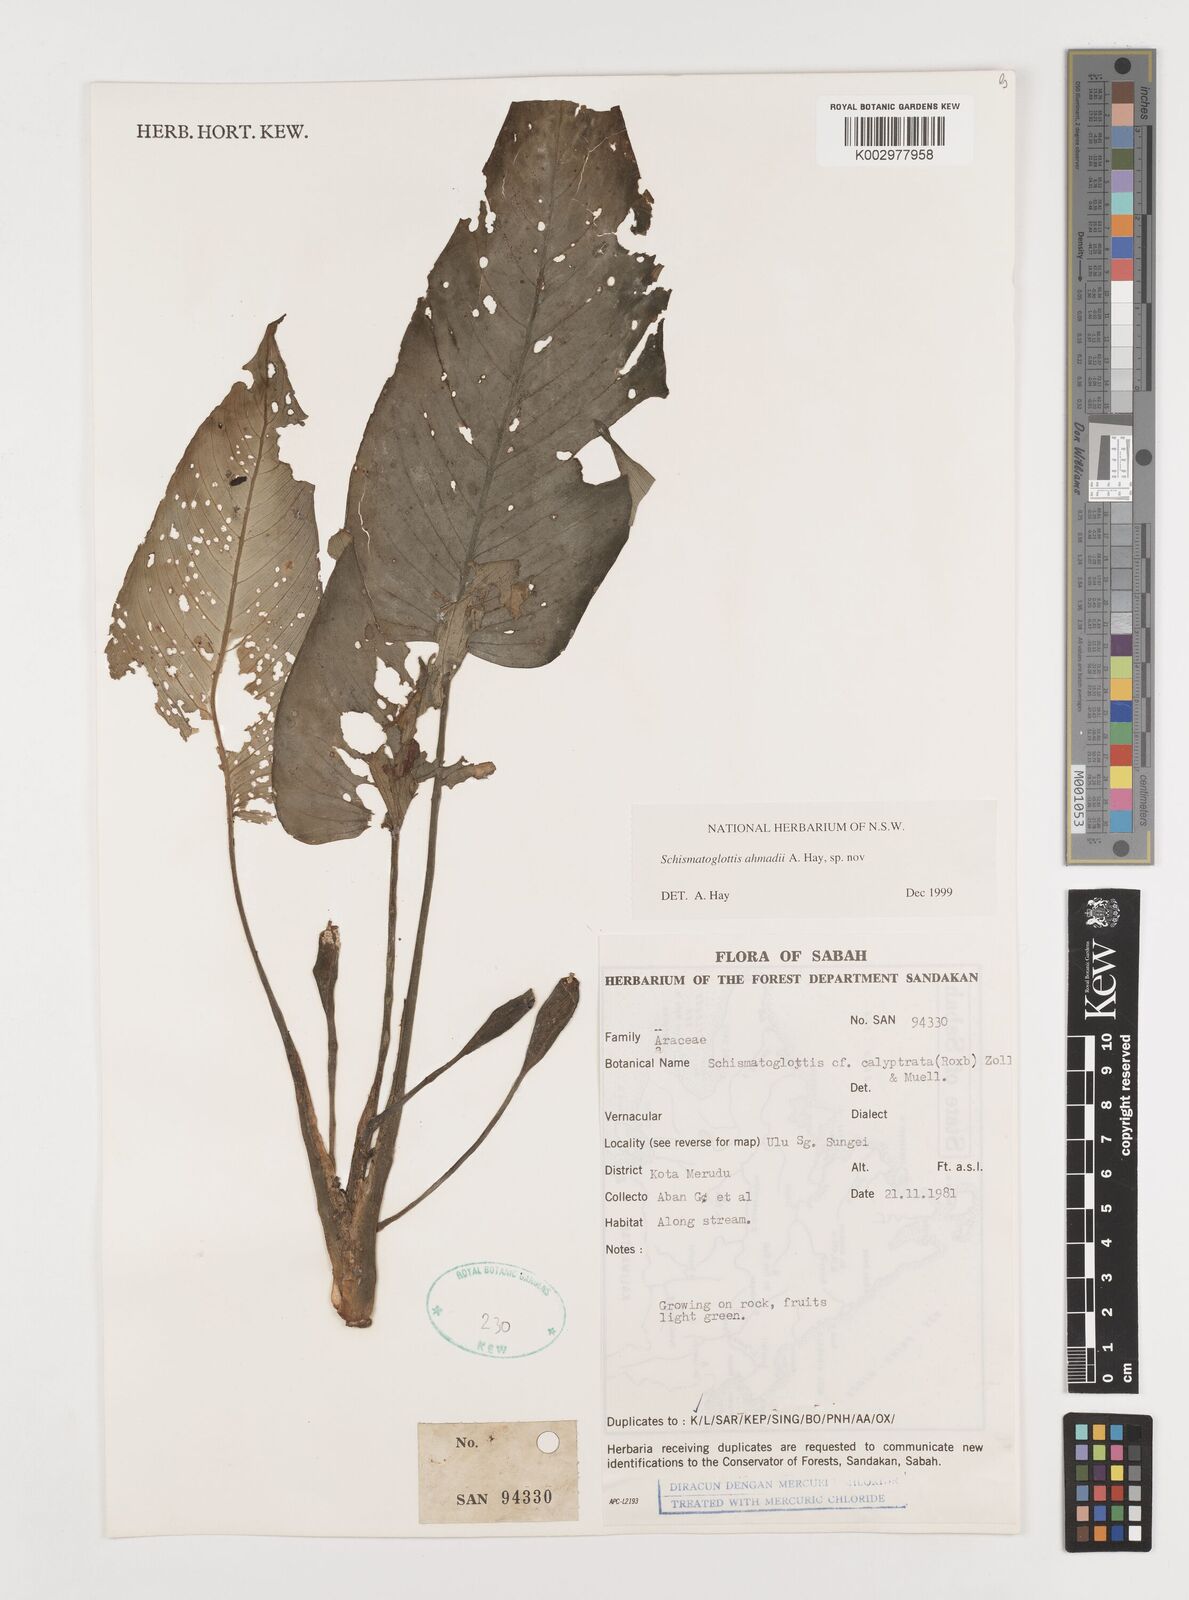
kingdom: Plantae
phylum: Tracheophyta
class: Liliopsida
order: Alismatales
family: Araceae
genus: Schismatoglottis
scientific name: Schismatoglottis ahmadii
